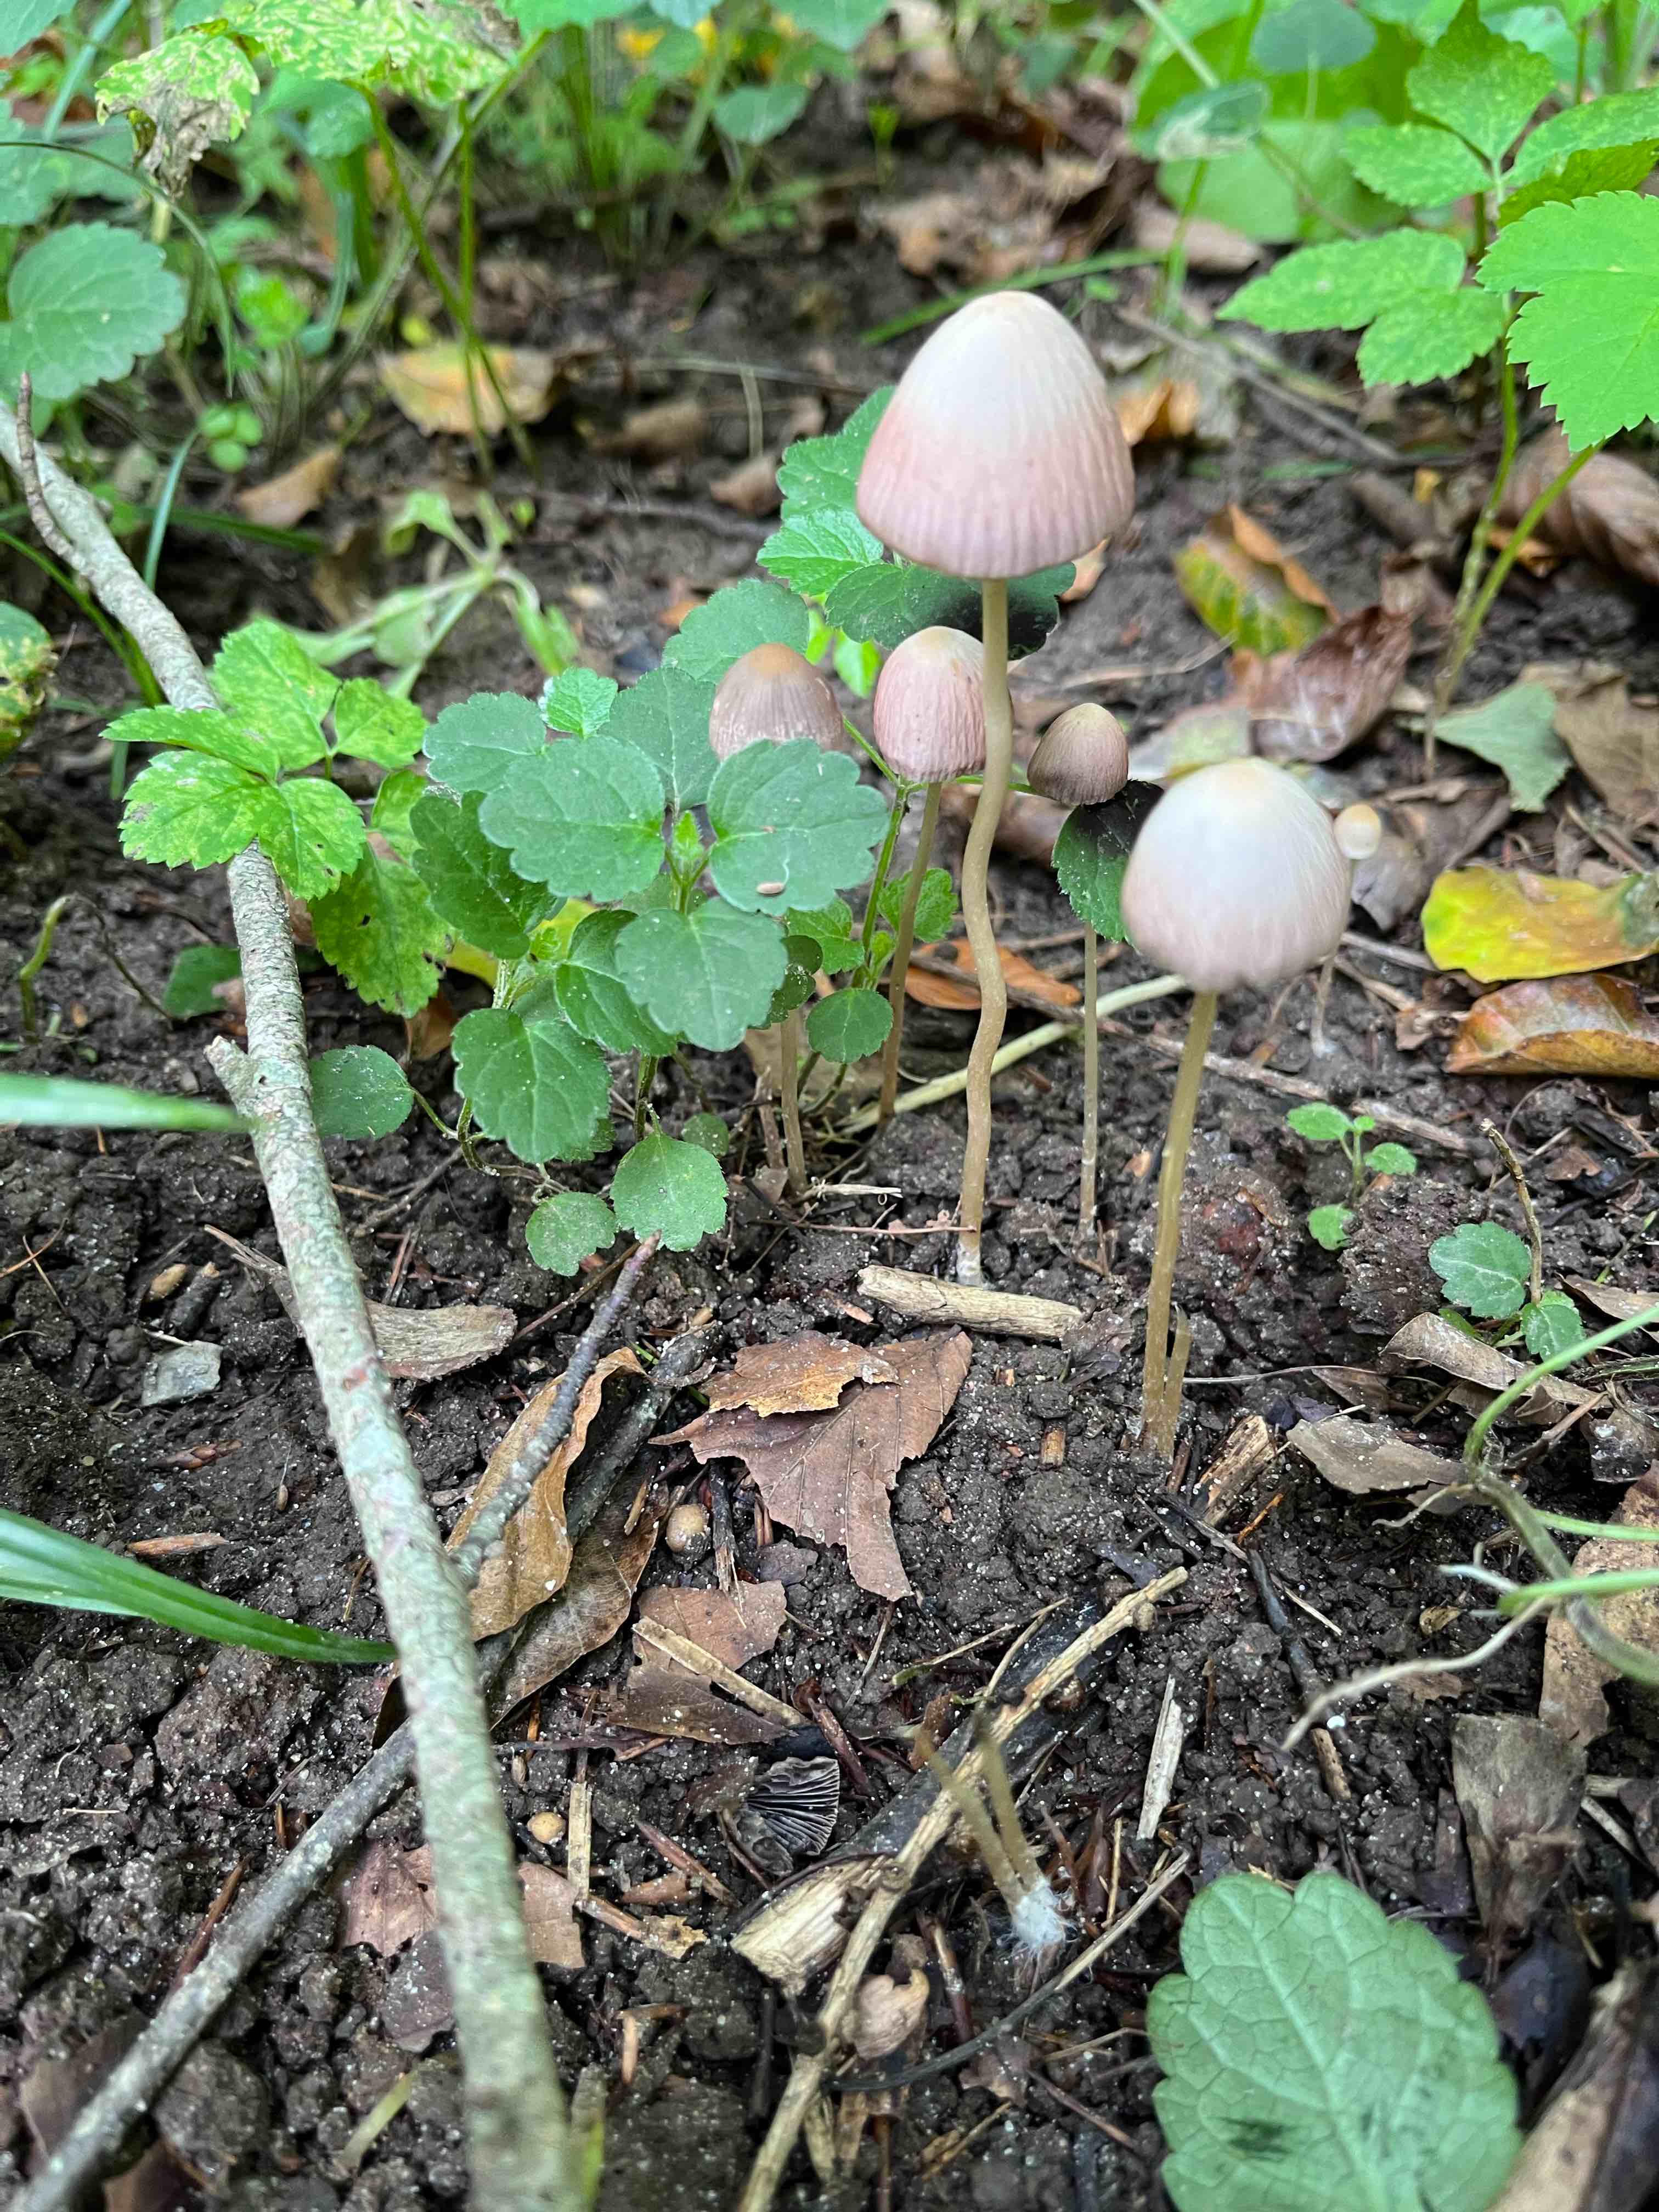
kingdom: Fungi
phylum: Basidiomycota
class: Agaricomycetes
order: Agaricales
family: Psathyrellaceae
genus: Psathyrella
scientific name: Psathyrella
